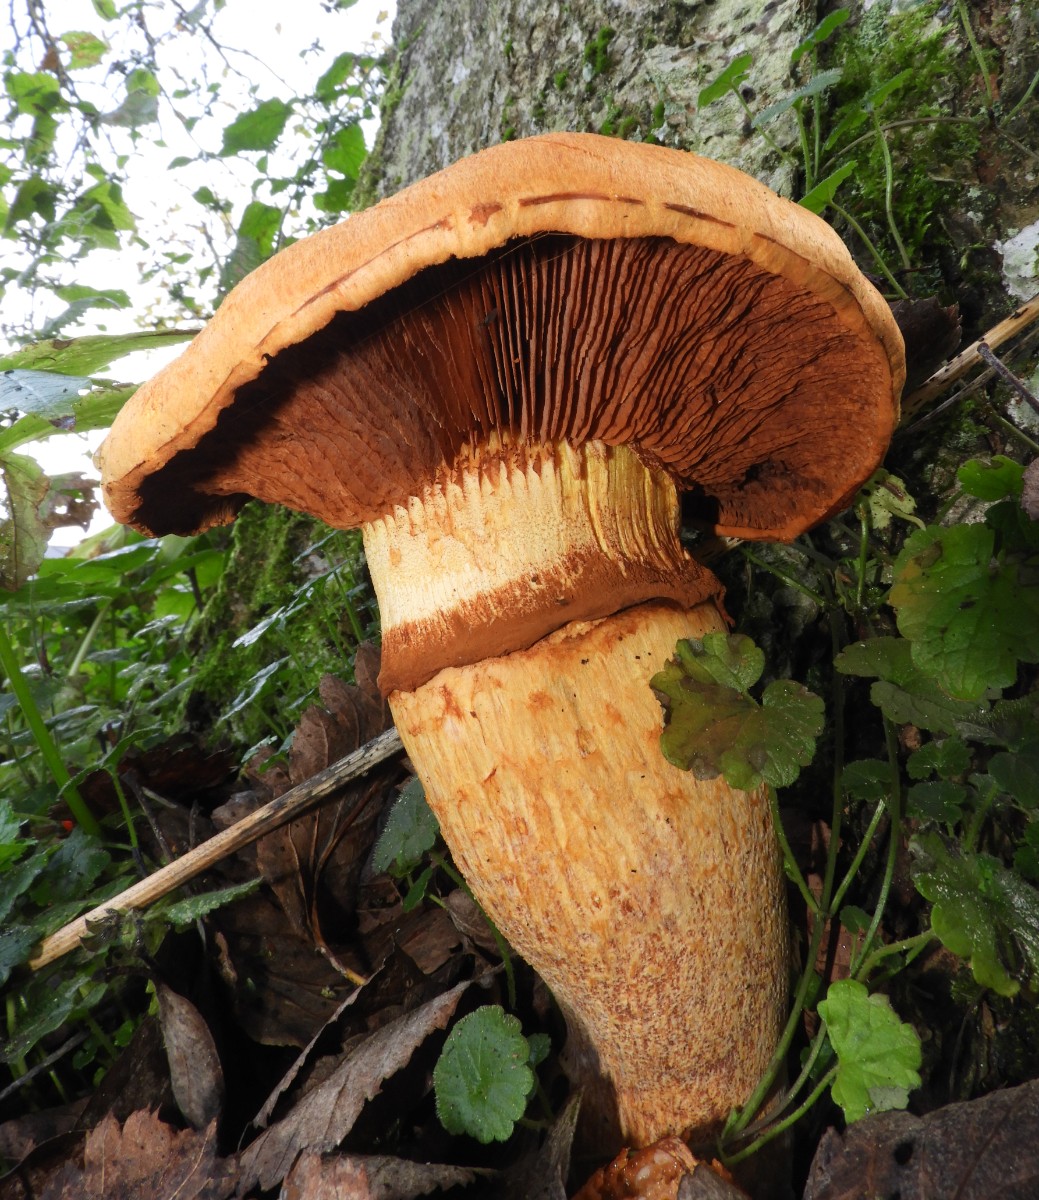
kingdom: Fungi
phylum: Basidiomycota
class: Agaricomycetes
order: Agaricales
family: Hymenogastraceae
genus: Gymnopilus
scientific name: Gymnopilus spectabilis
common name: fibret flammehat
